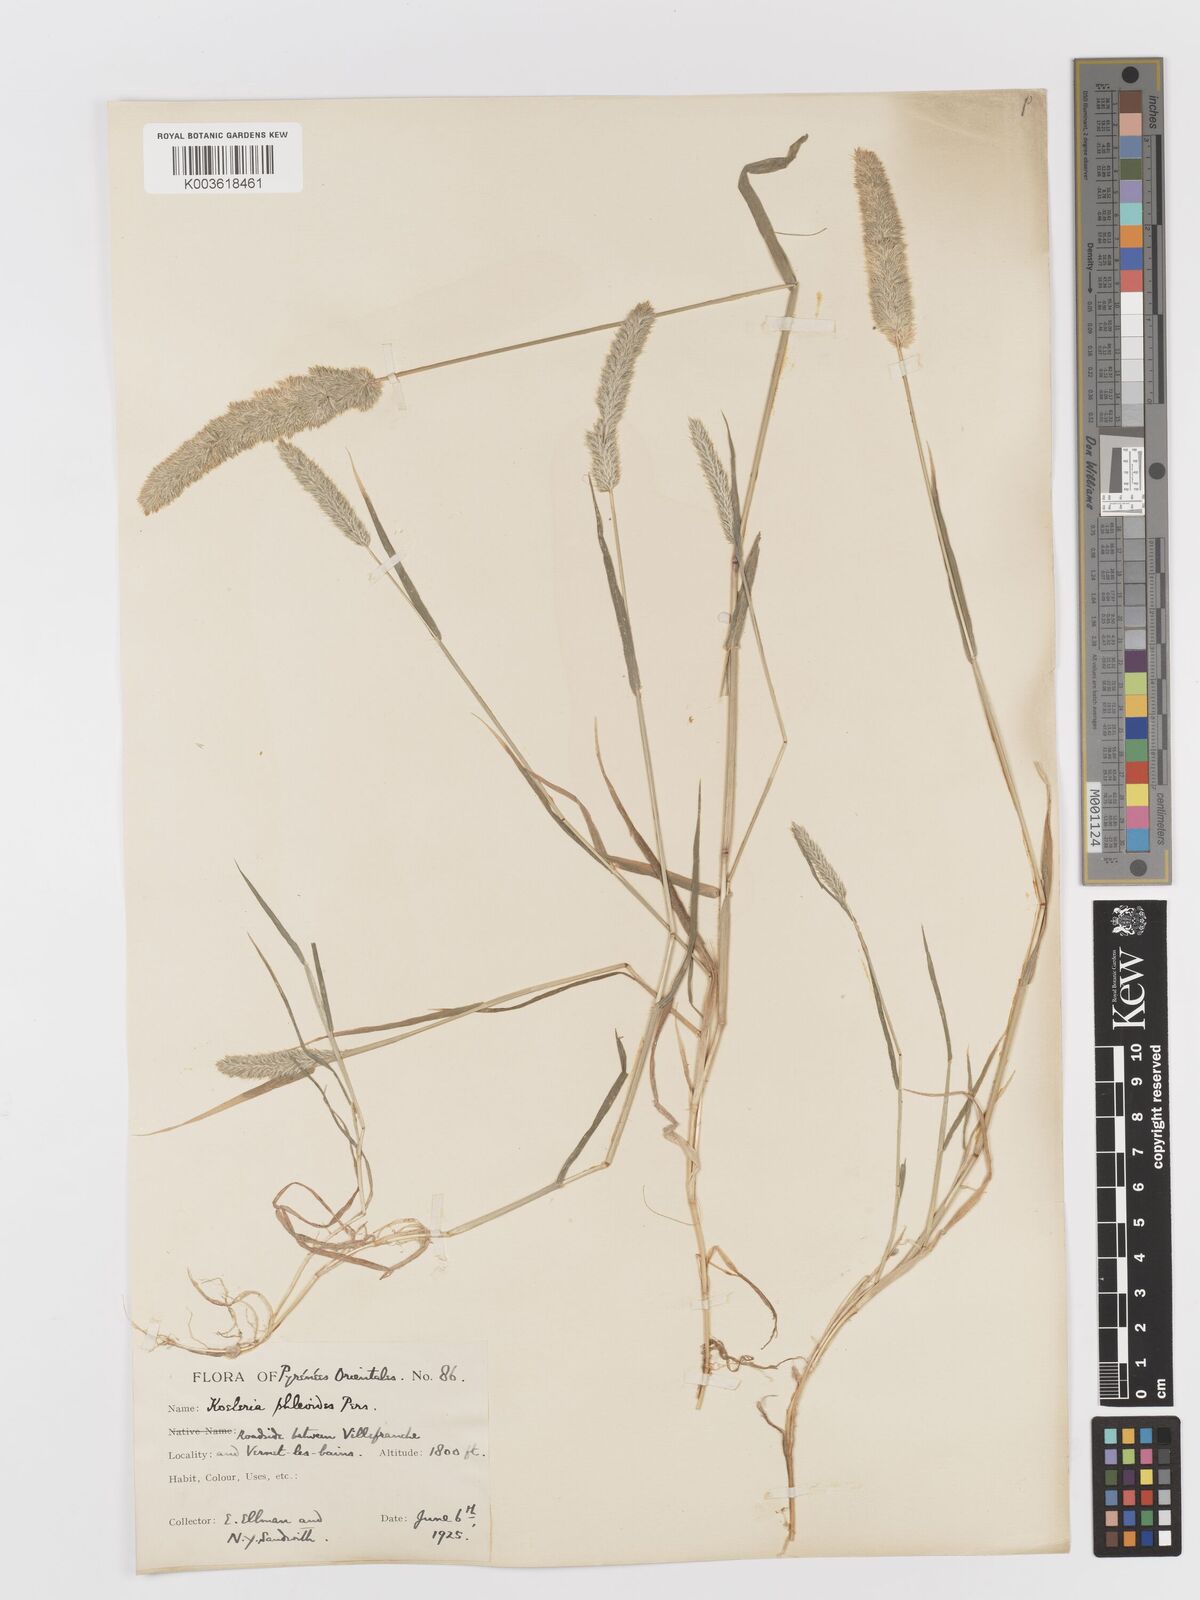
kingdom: Plantae
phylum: Tracheophyta
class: Liliopsida
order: Poales
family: Poaceae
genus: Rostraria
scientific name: Rostraria cristata
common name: Mediterranean hair-grass
